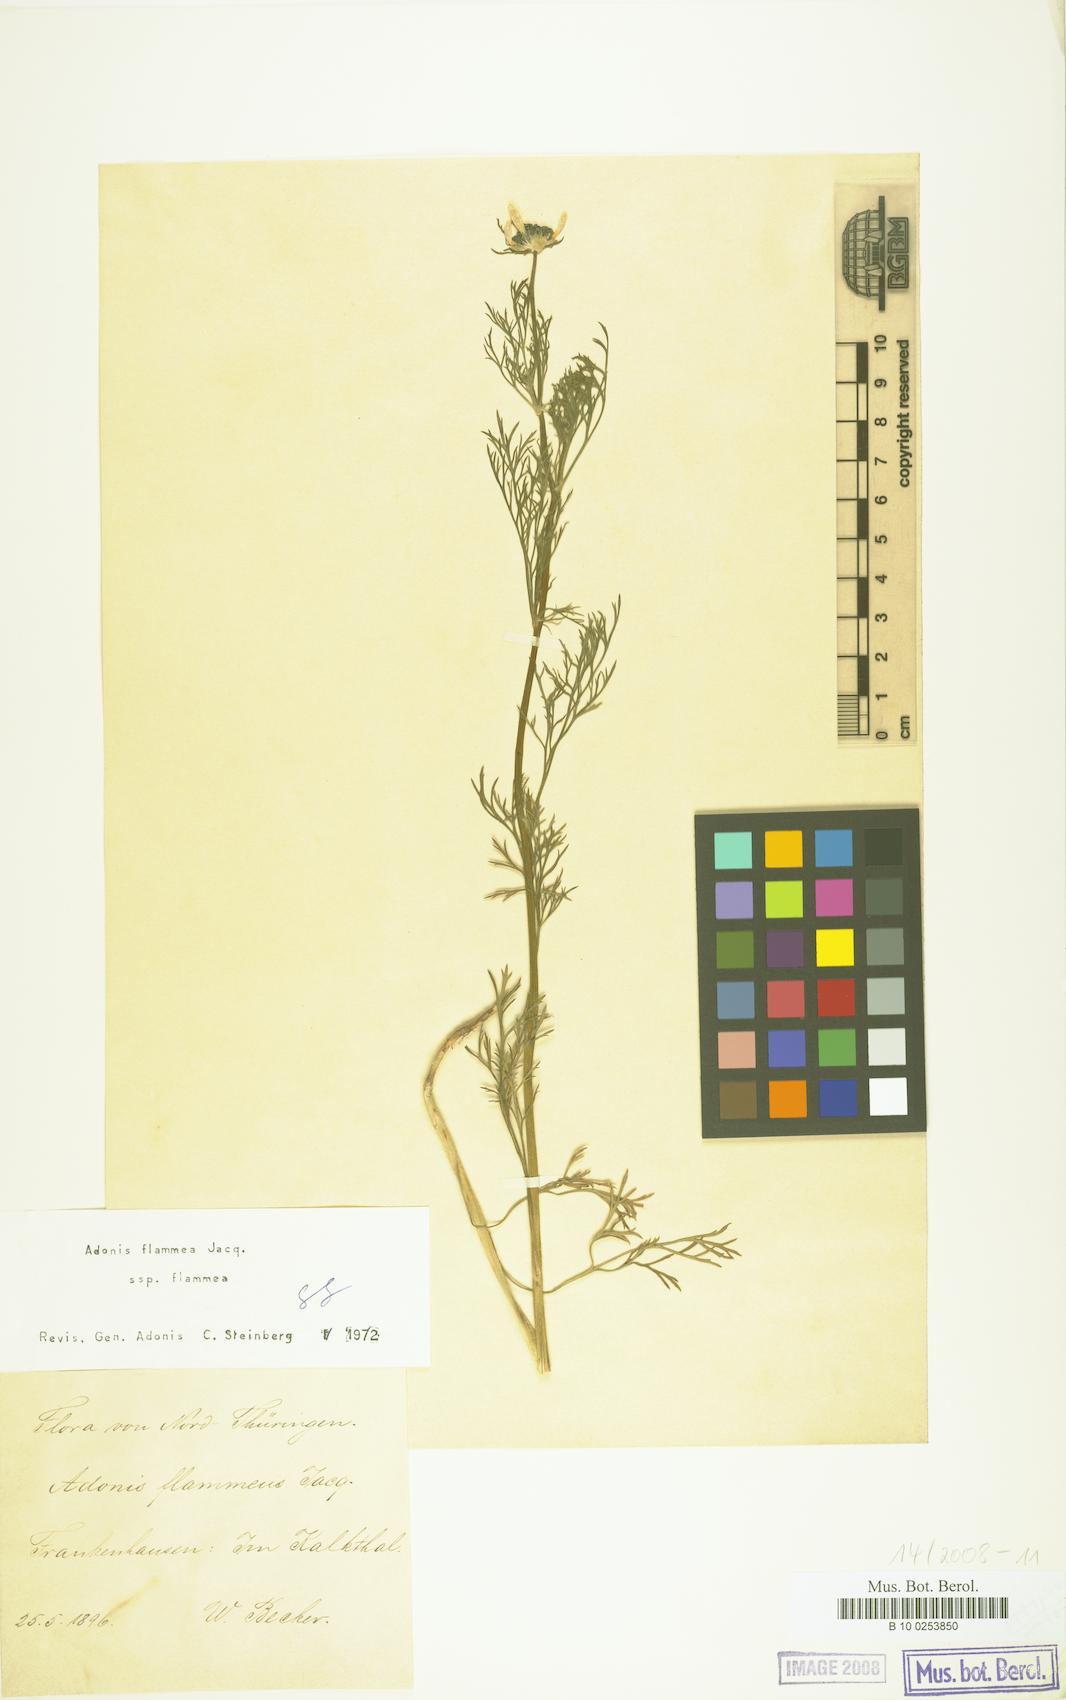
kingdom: Plantae
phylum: Tracheophyta
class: Magnoliopsida
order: Ranunculales
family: Ranunculaceae
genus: Adonis
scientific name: Adonis flammea
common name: Large pheasant's-eye
